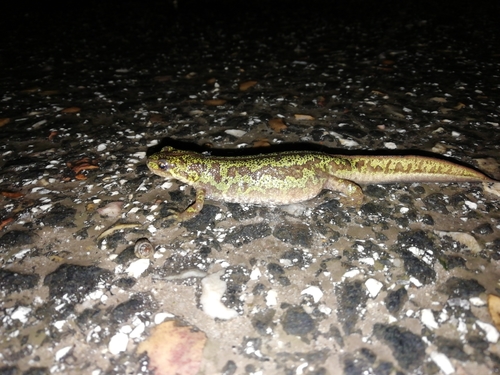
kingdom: Animalia
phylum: Chordata
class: Amphibia
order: Caudata
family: Salamandridae
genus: Triturus
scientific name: Triturus pygmaeus
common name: Southern marbled newt
